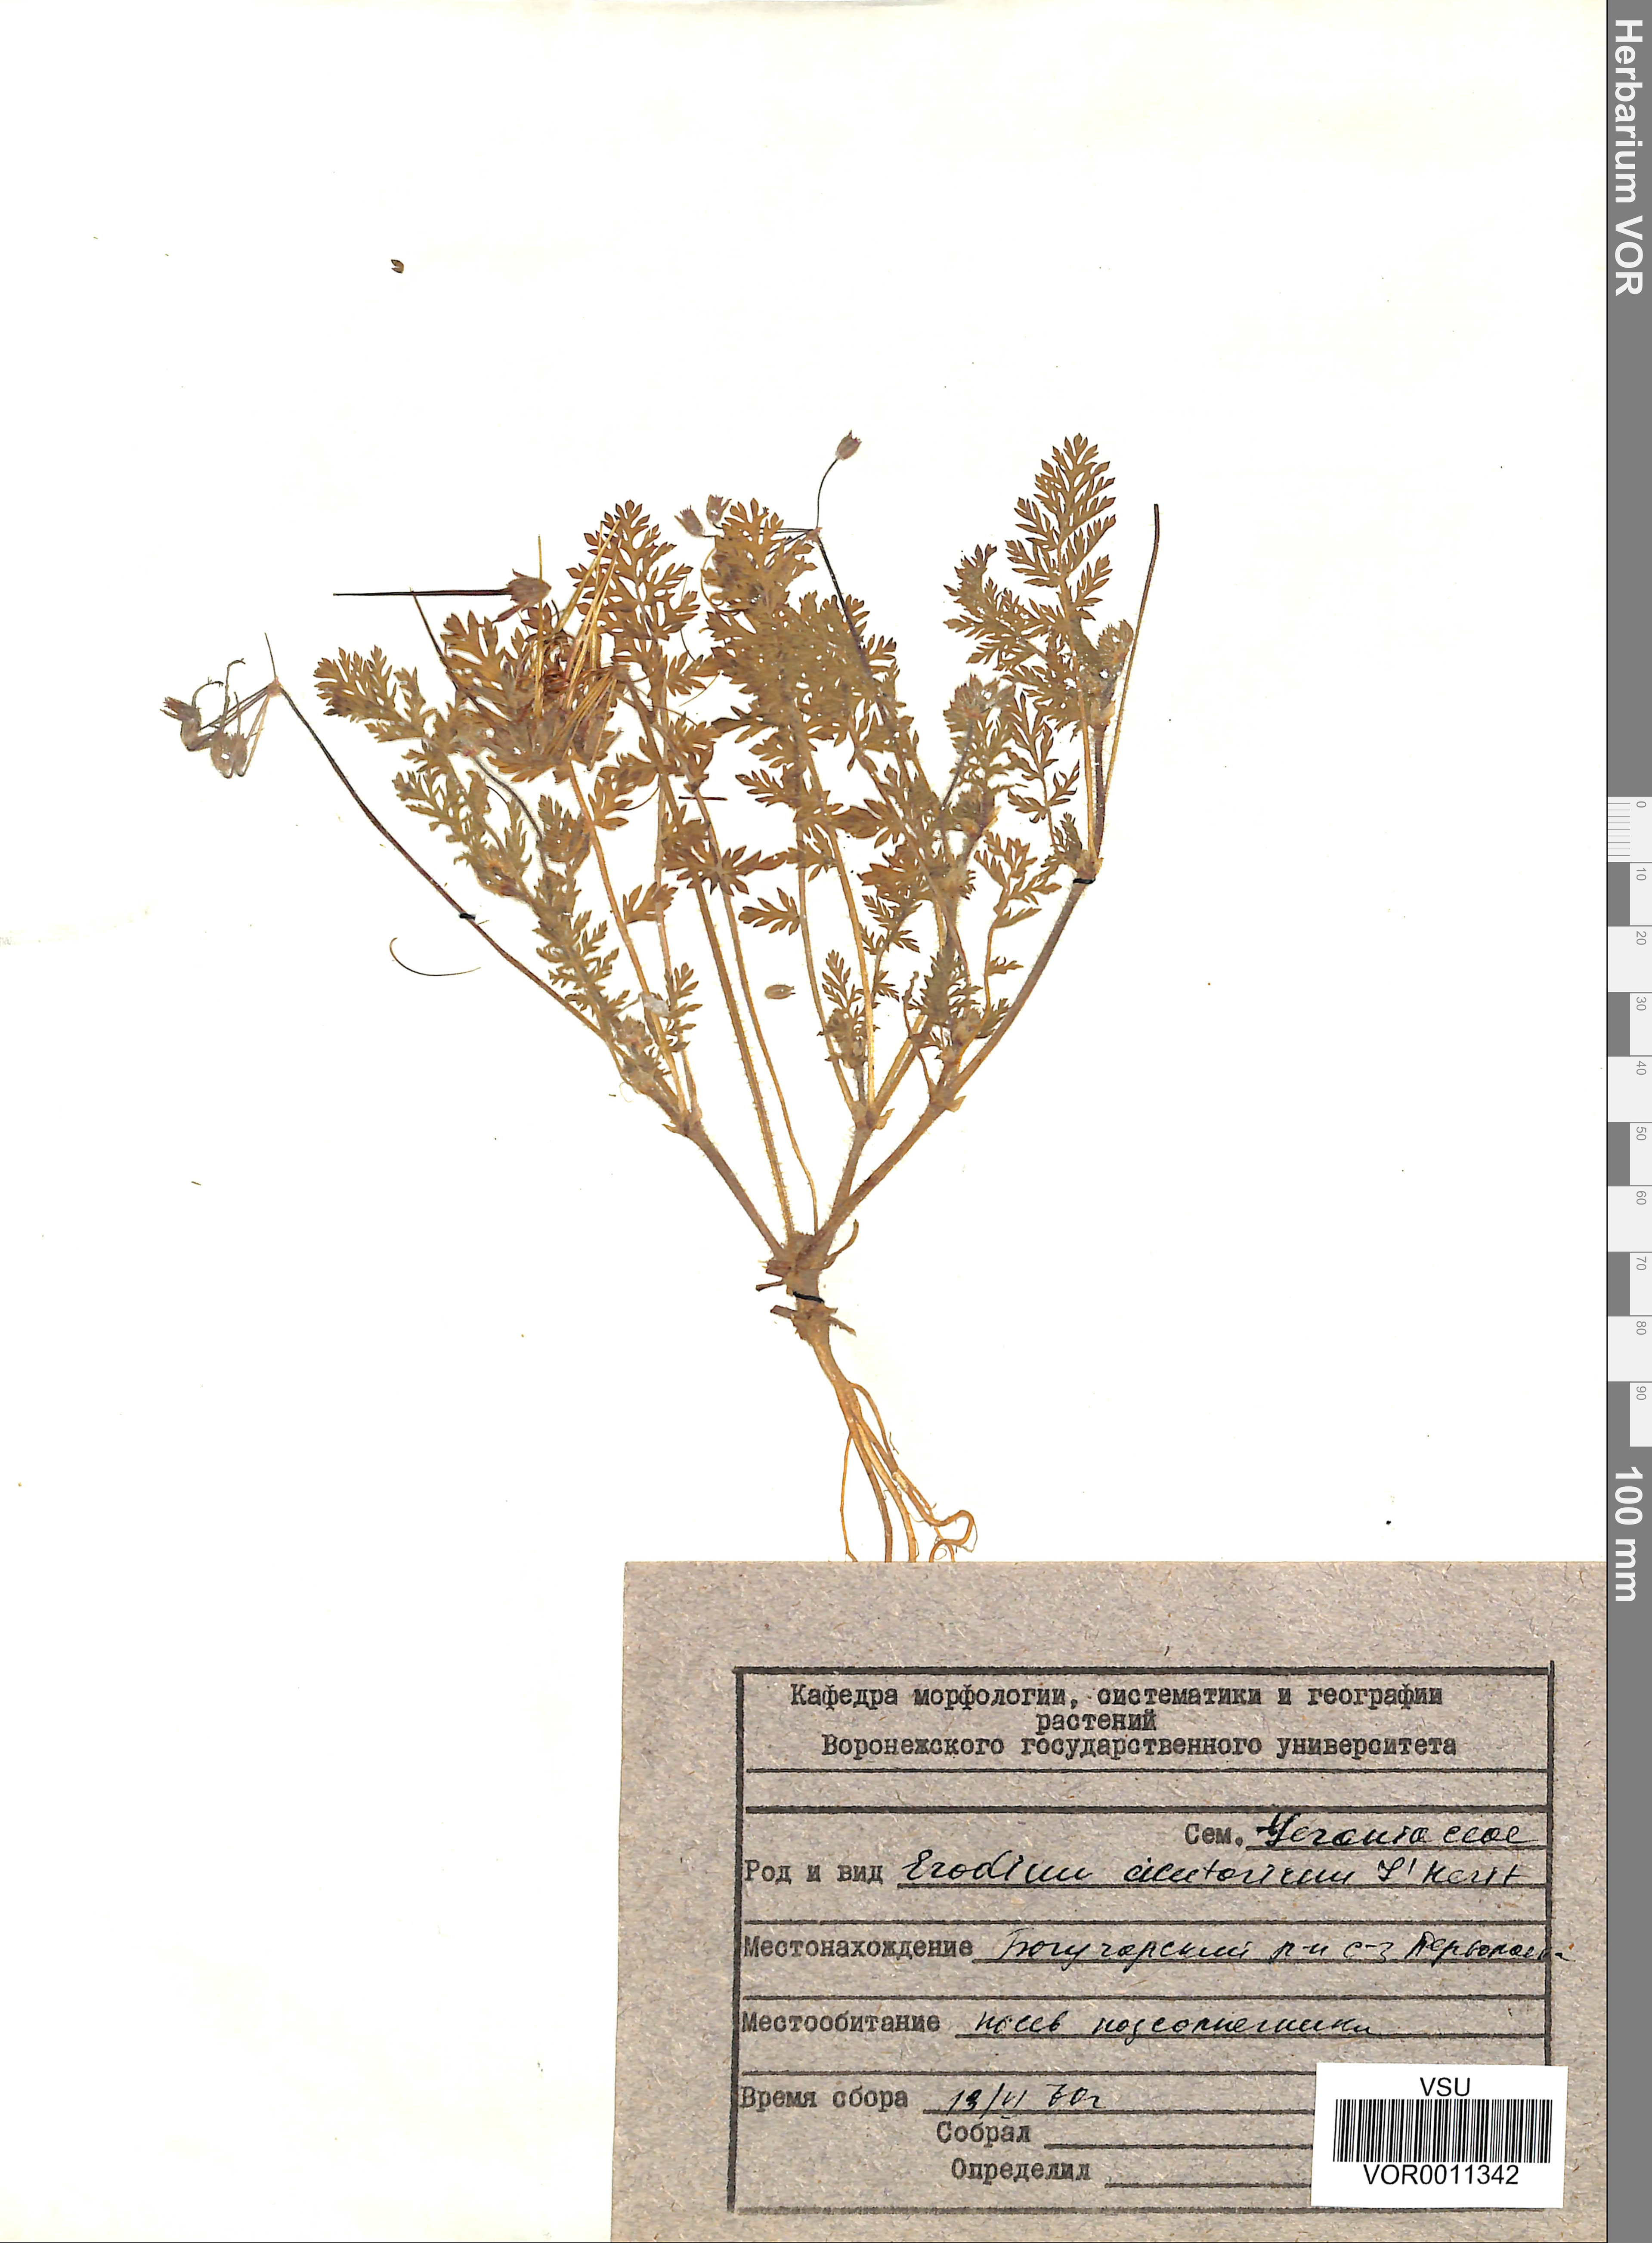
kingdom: Plantae
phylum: Tracheophyta
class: Magnoliopsida
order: Geraniales
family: Geraniaceae
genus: Erodium
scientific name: Erodium cicutarium
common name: Common stork's-bill
